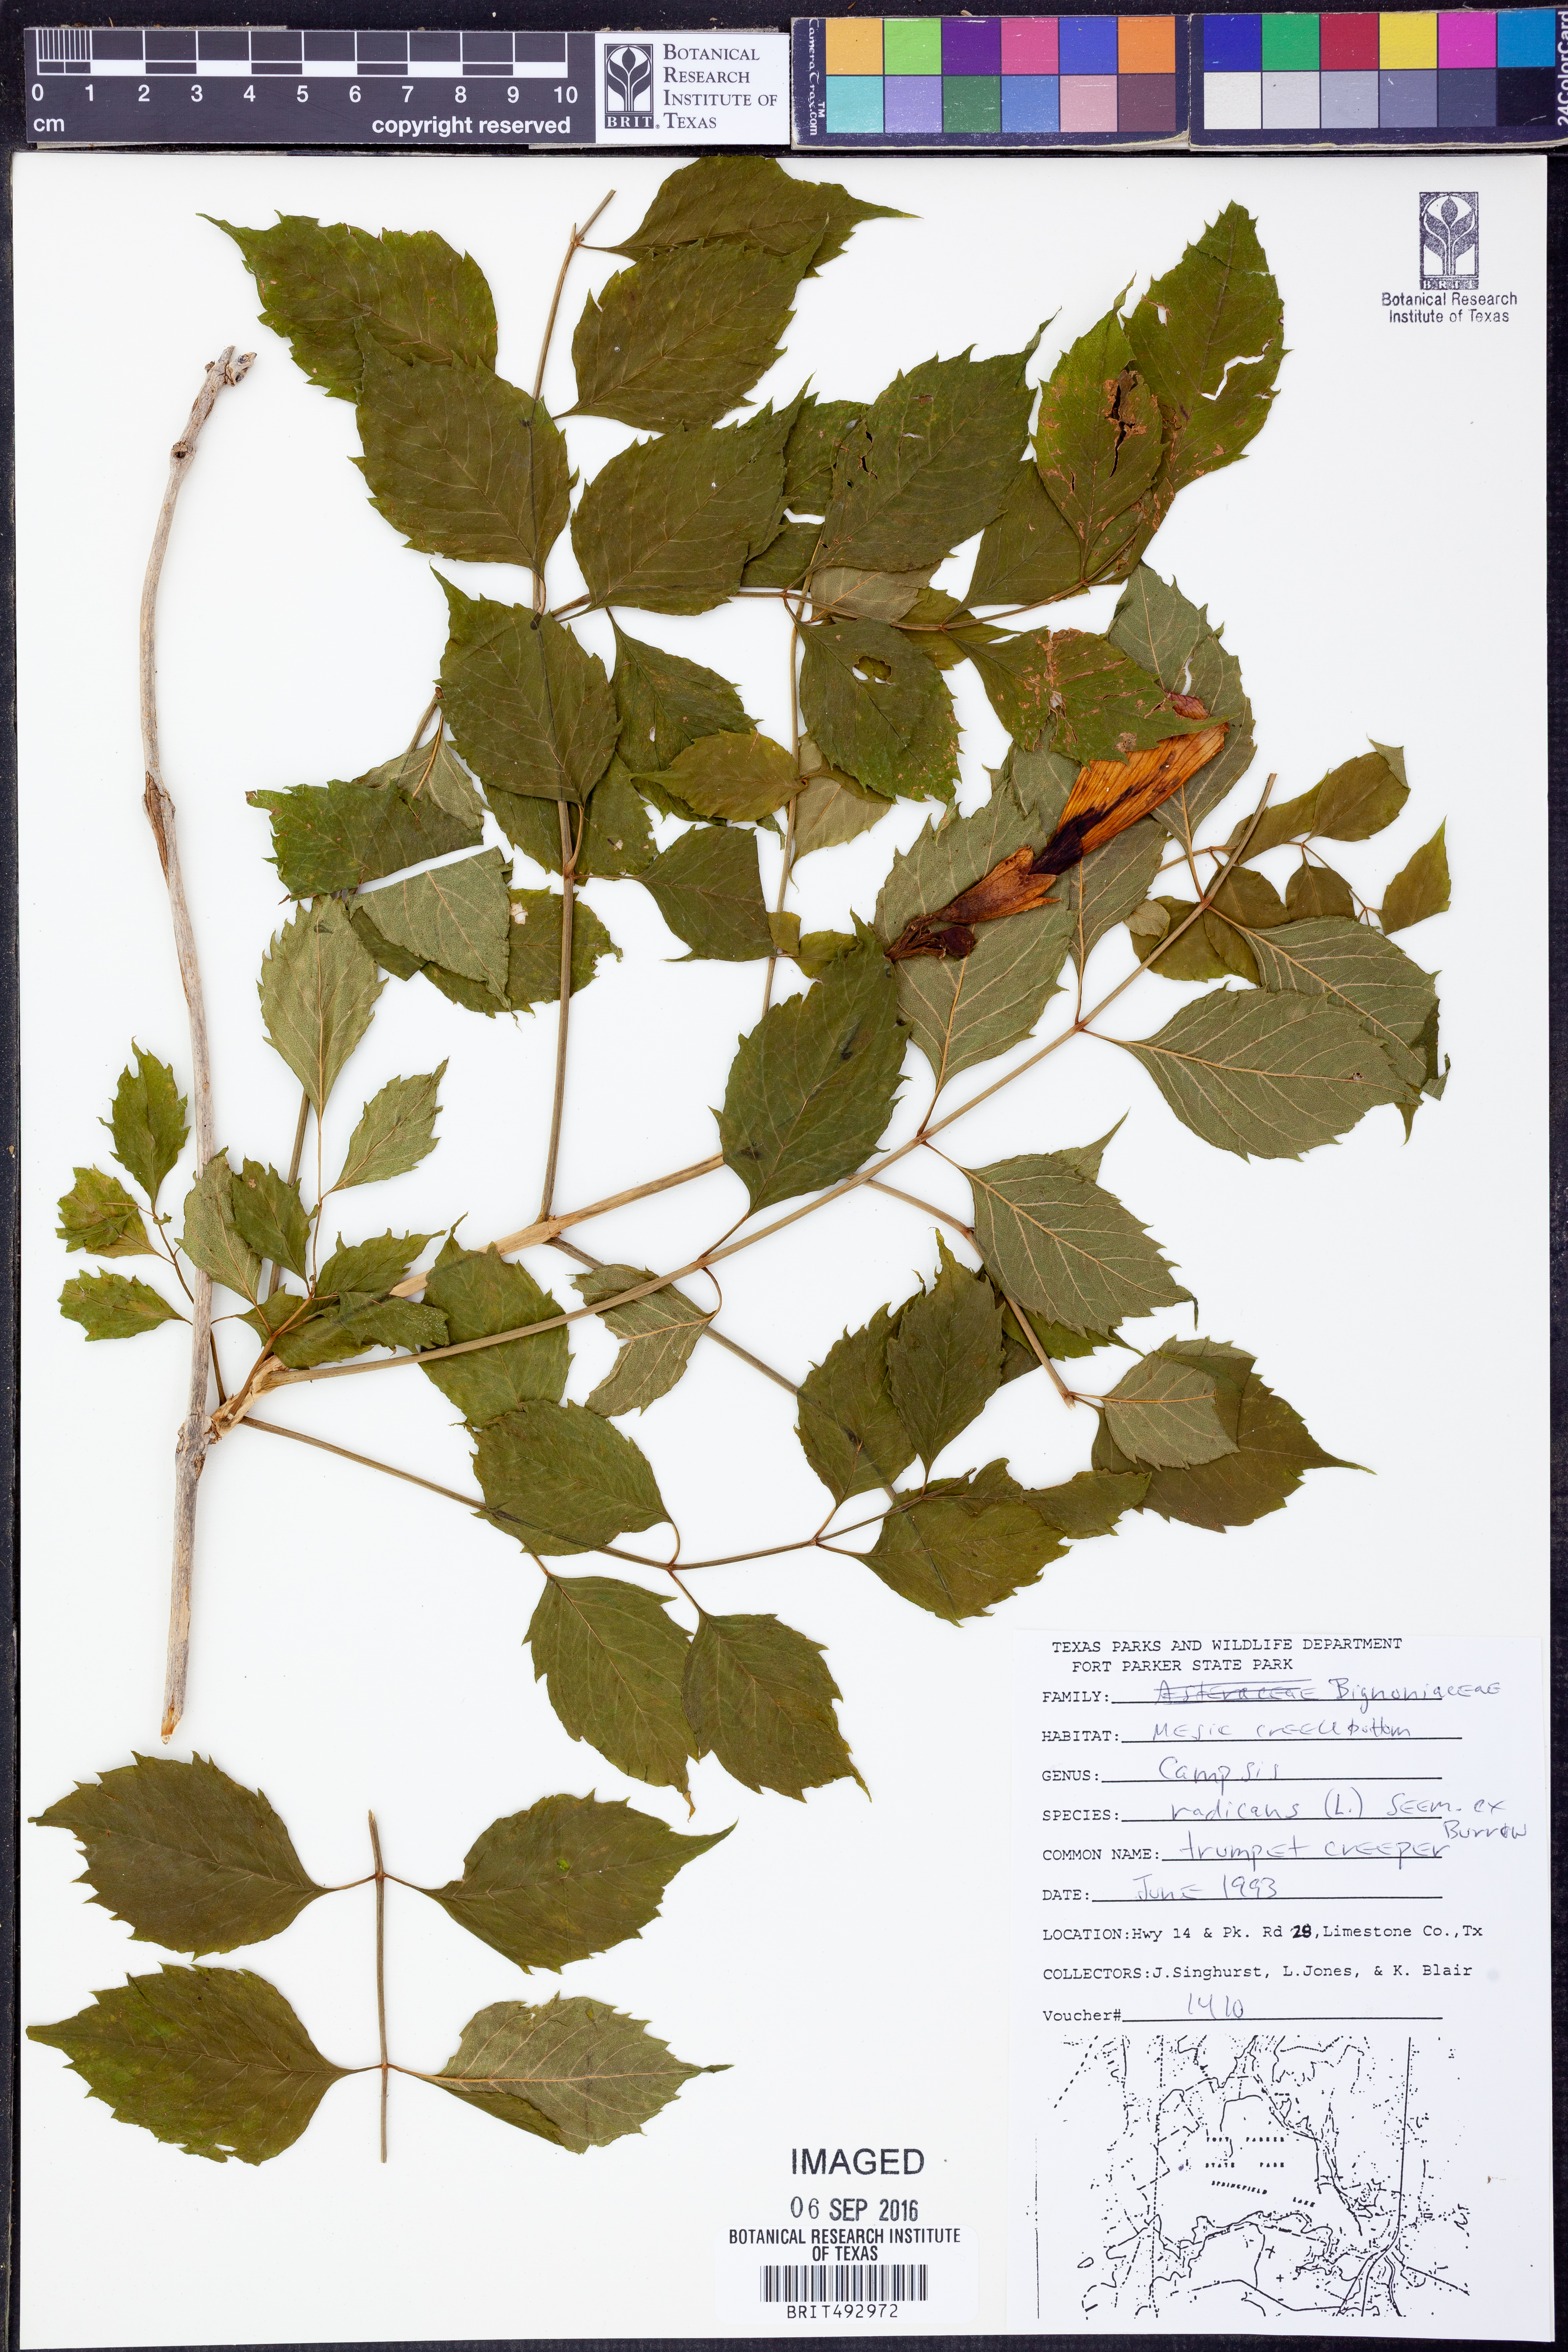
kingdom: Plantae
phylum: Tracheophyta
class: Magnoliopsida
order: Lamiales
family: Bignoniaceae
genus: Campsis
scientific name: Campsis radicans
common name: Trumpet-creeper
